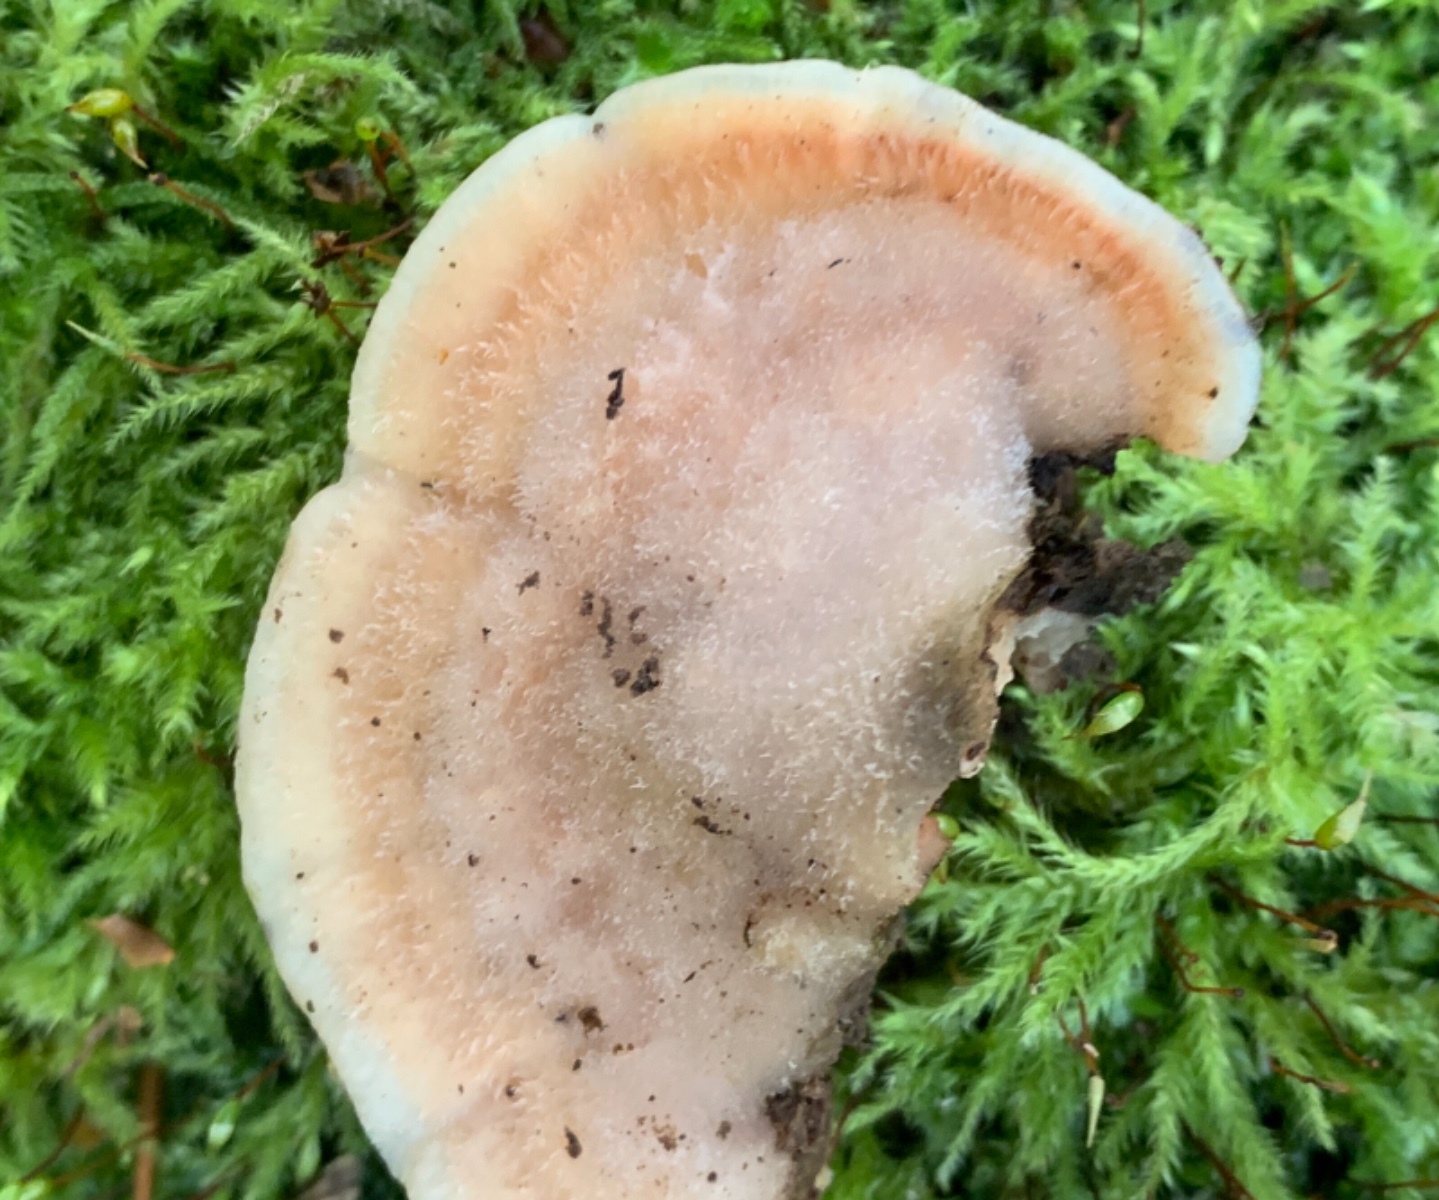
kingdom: Fungi
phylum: Basidiomycota
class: Agaricomycetes
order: Polyporales
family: Meruliaceae
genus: Phlebia
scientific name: Phlebia tremellosa
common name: bævrende åresvamp
